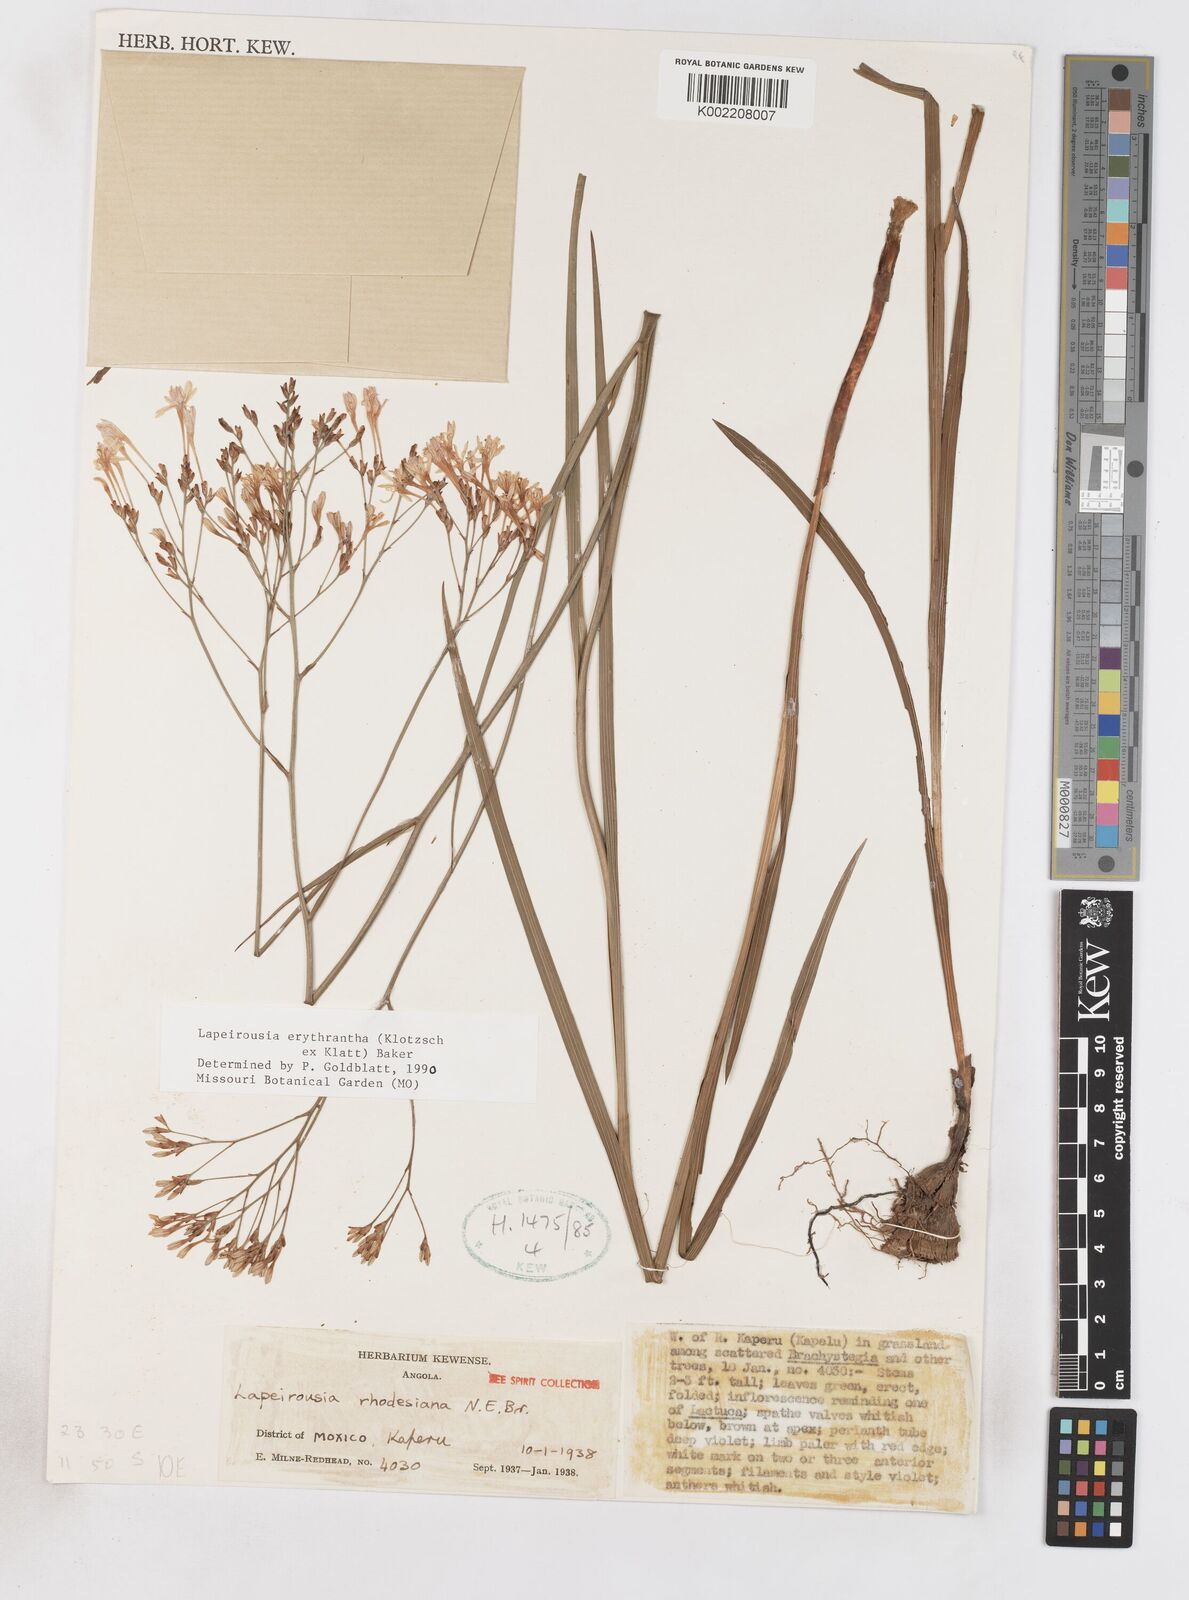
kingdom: Plantae
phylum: Tracheophyta
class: Liliopsida
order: Asparagales
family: Iridaceae
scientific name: Iridaceae
